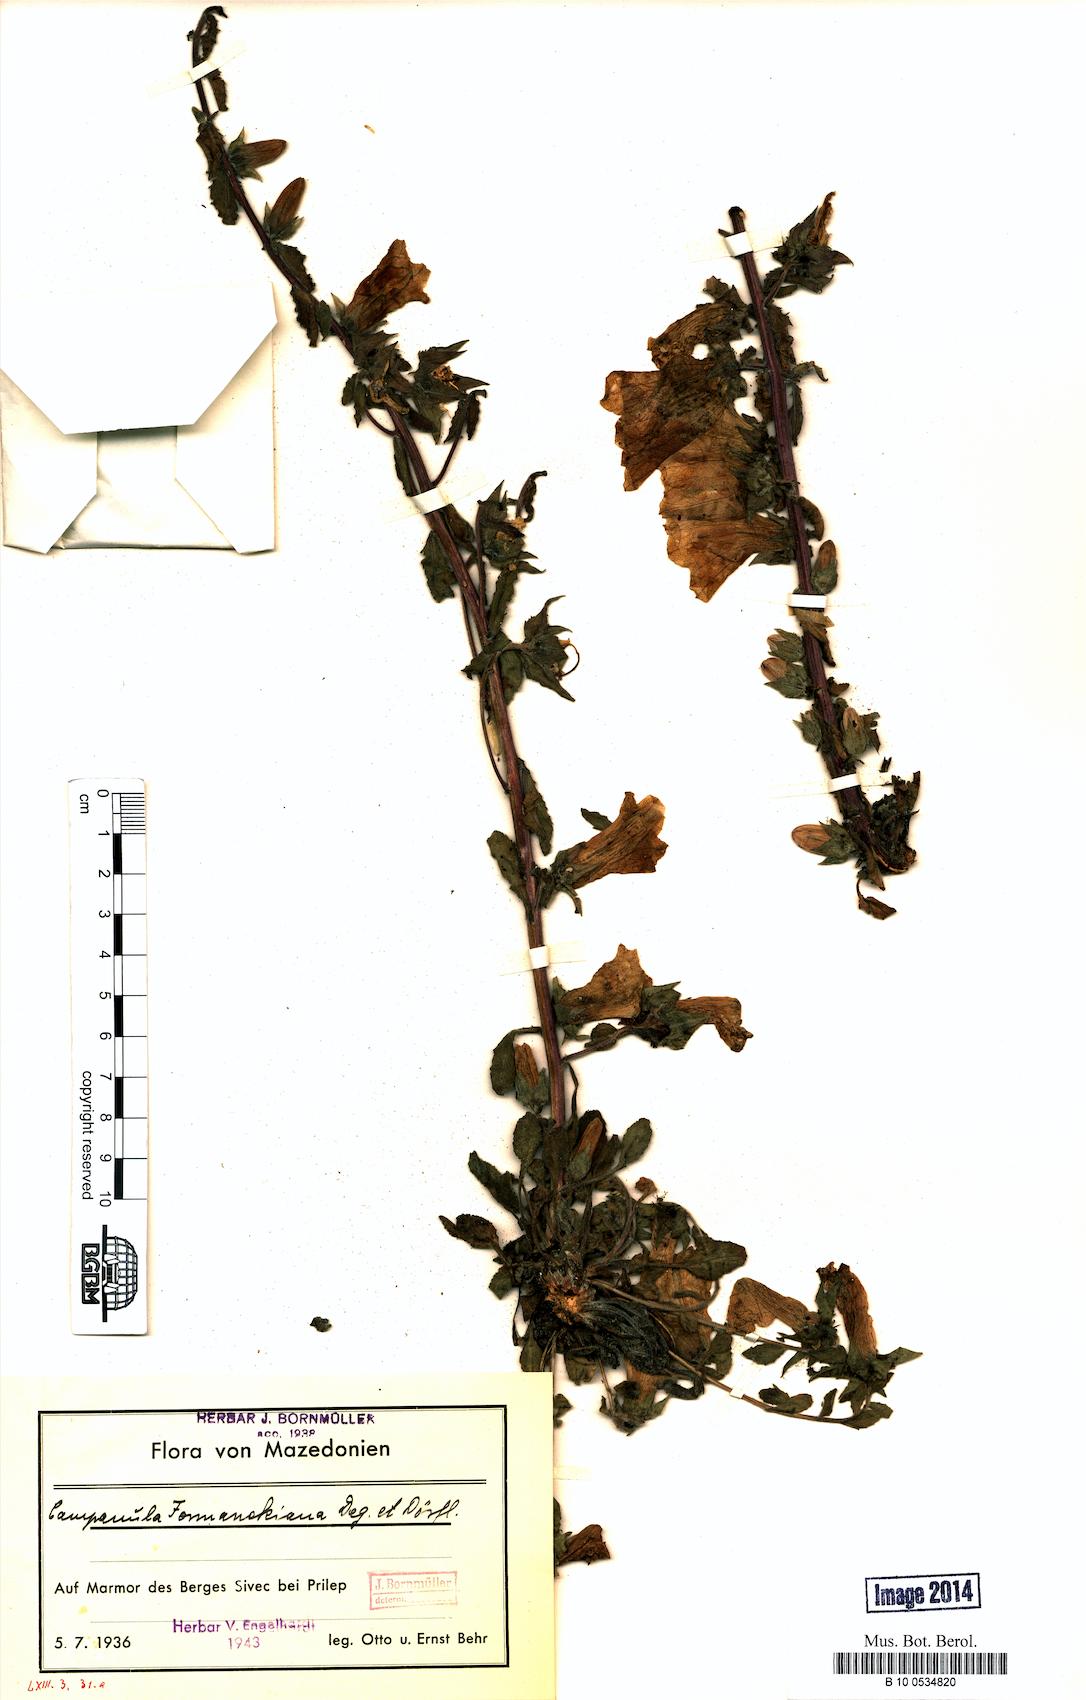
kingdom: Plantae
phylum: Tracheophyta
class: Magnoliopsida
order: Asterales
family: Campanulaceae
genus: Campanula
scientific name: Campanula formanekiana
